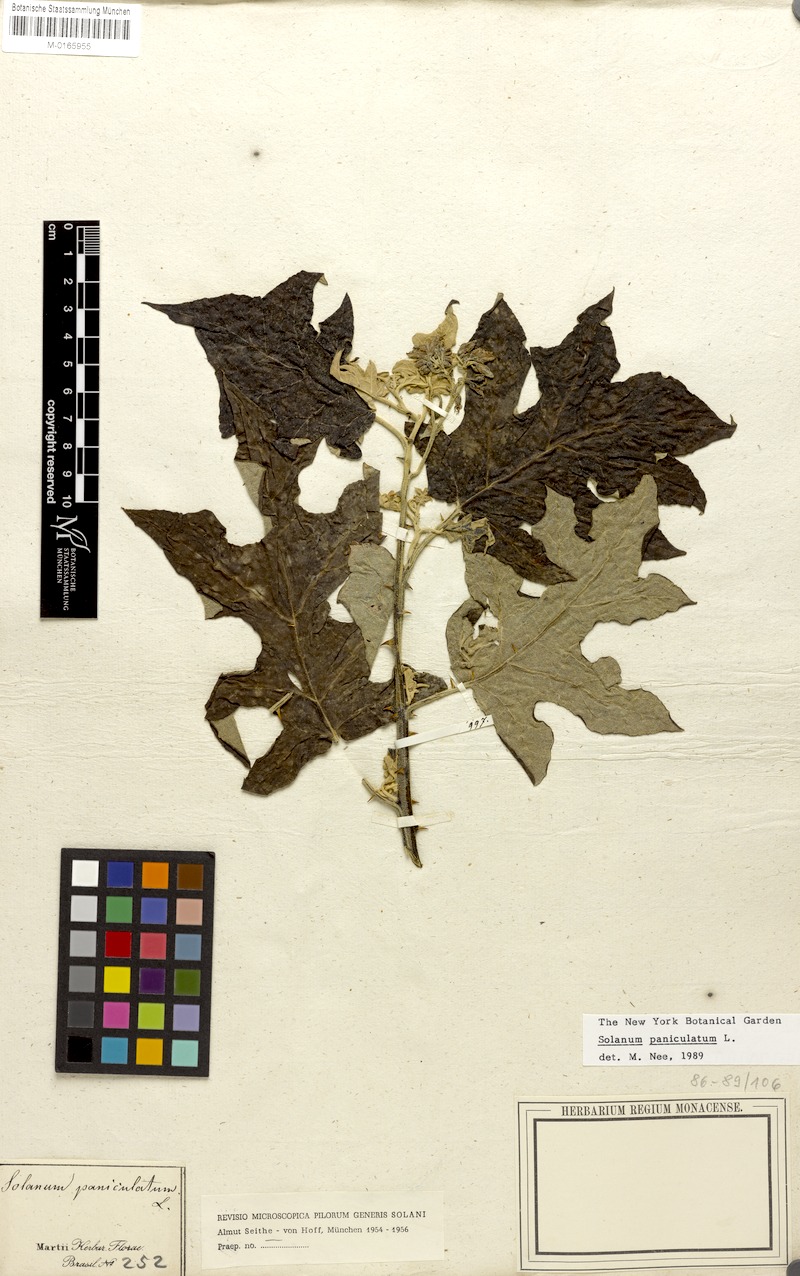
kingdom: Plantae
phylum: Tracheophyta
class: Magnoliopsida
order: Solanales
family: Solanaceae
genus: Solanum
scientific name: Solanum paniculatum
